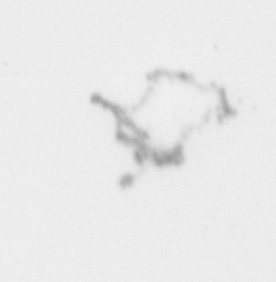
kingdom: Chromista
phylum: Ochrophyta
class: Bacillariophyceae
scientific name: Bacillariophyceae
